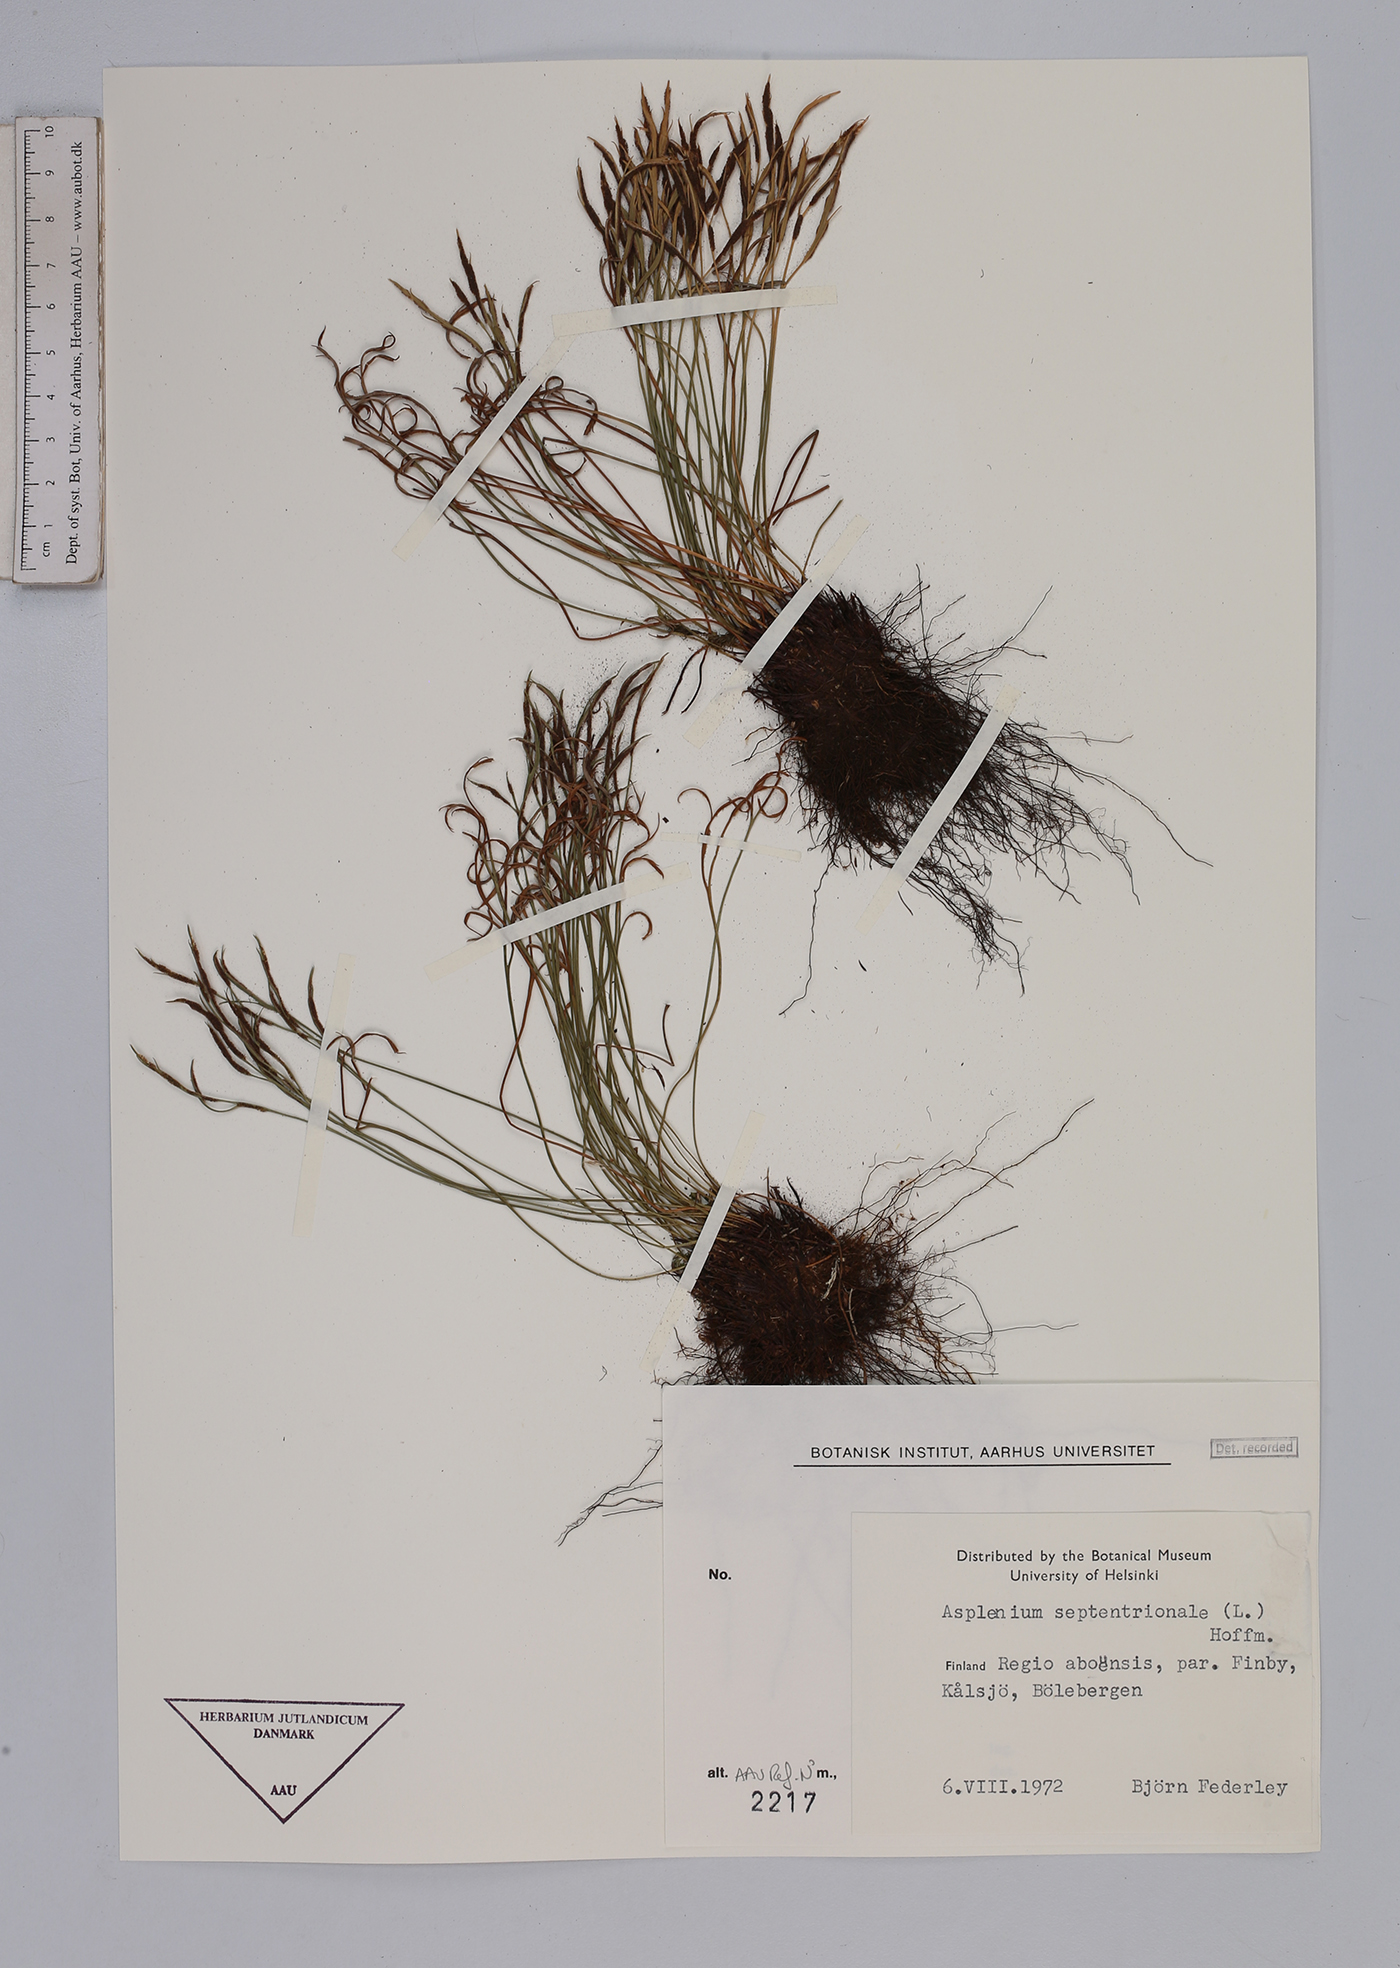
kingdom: Plantae
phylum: Tracheophyta
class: Polypodiopsida
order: Polypodiales
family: Aspleniaceae
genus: Asplenium
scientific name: Asplenium septentrionale
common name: Forked spleenwort
